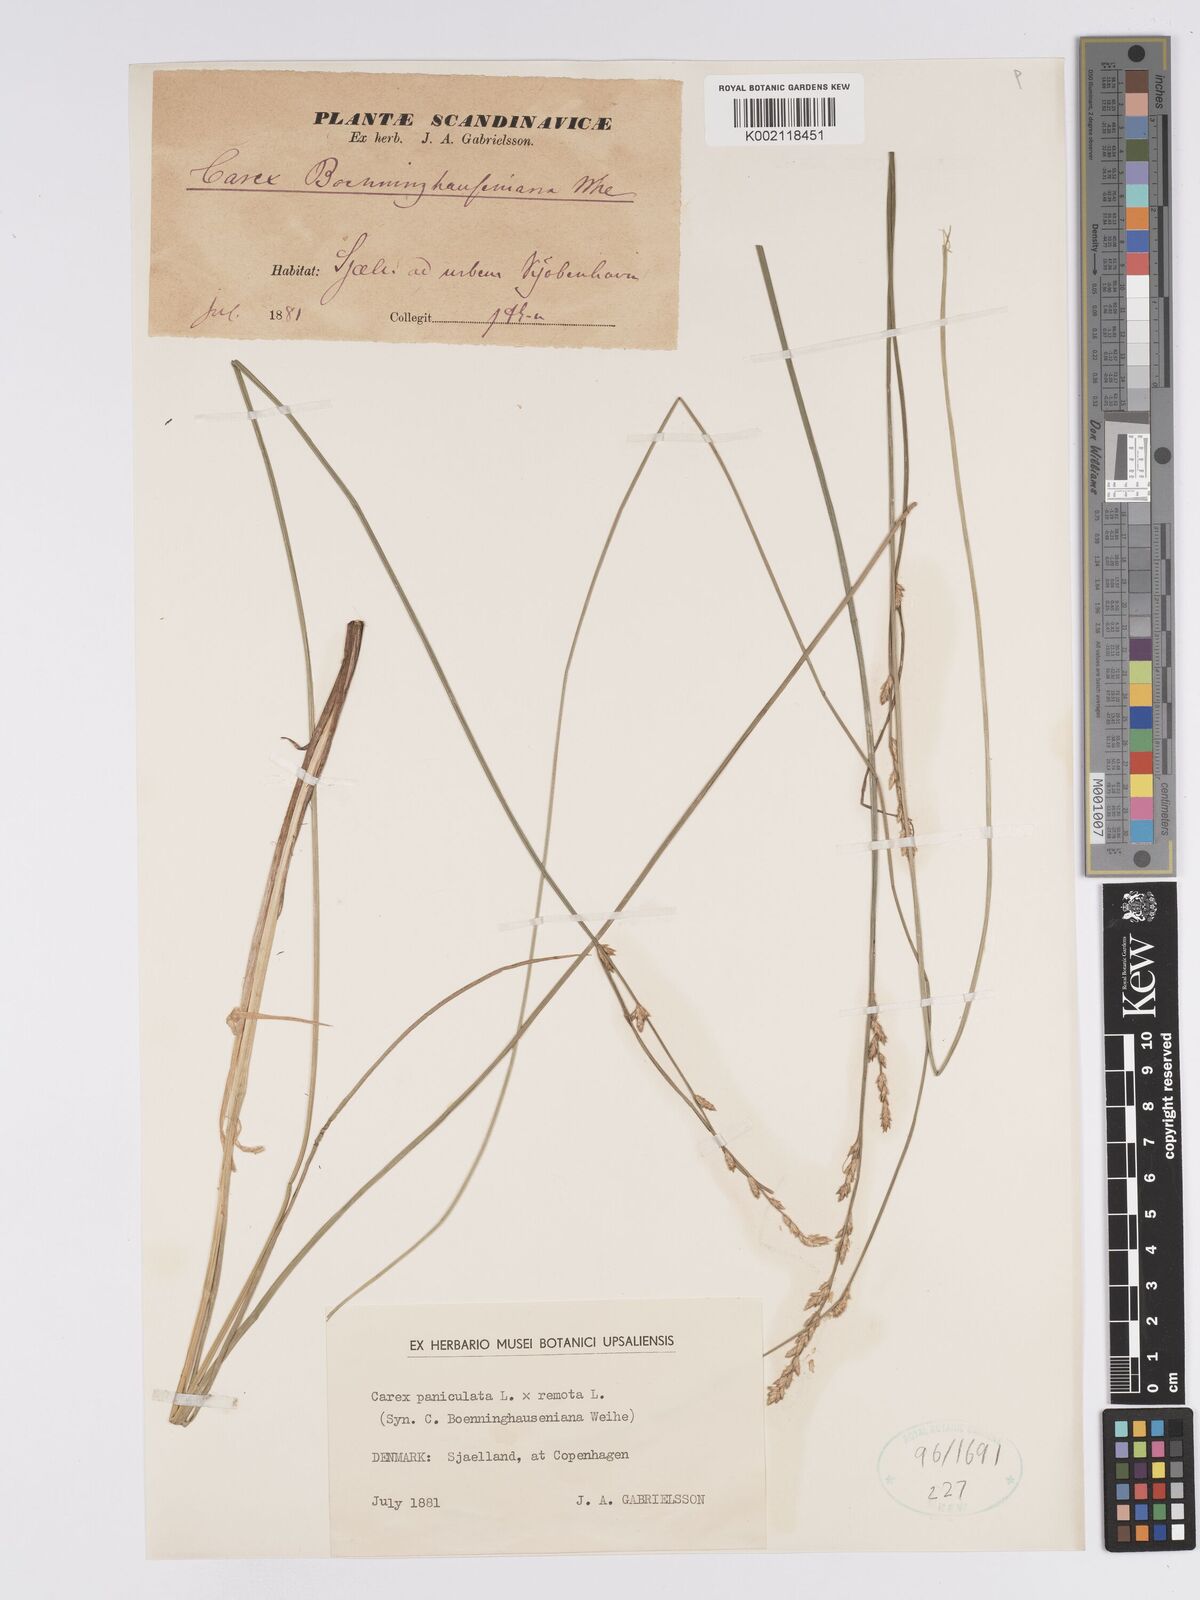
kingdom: Plantae
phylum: Tracheophyta
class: Liliopsida
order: Poales
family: Cyperaceae
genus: Carex
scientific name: Carex boenninghausiana
